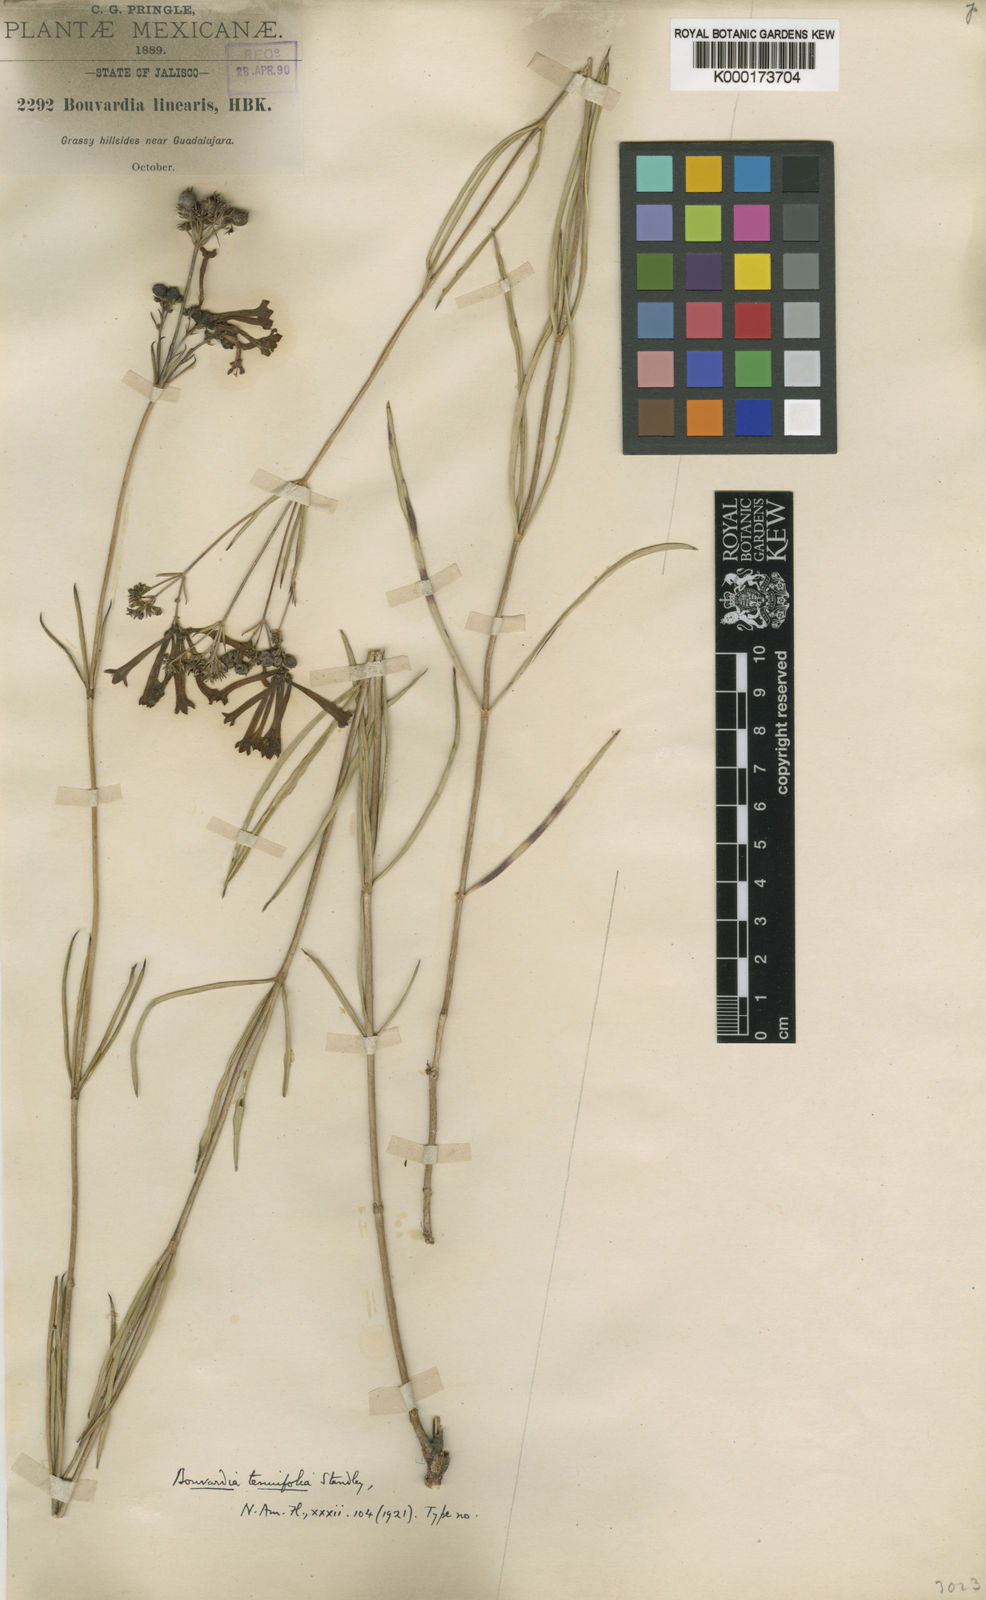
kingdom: Plantae
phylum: Tracheophyta
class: Magnoliopsida
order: Gentianales
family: Rubiaceae
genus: Bouvardia
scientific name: Bouvardia tenuifolia
